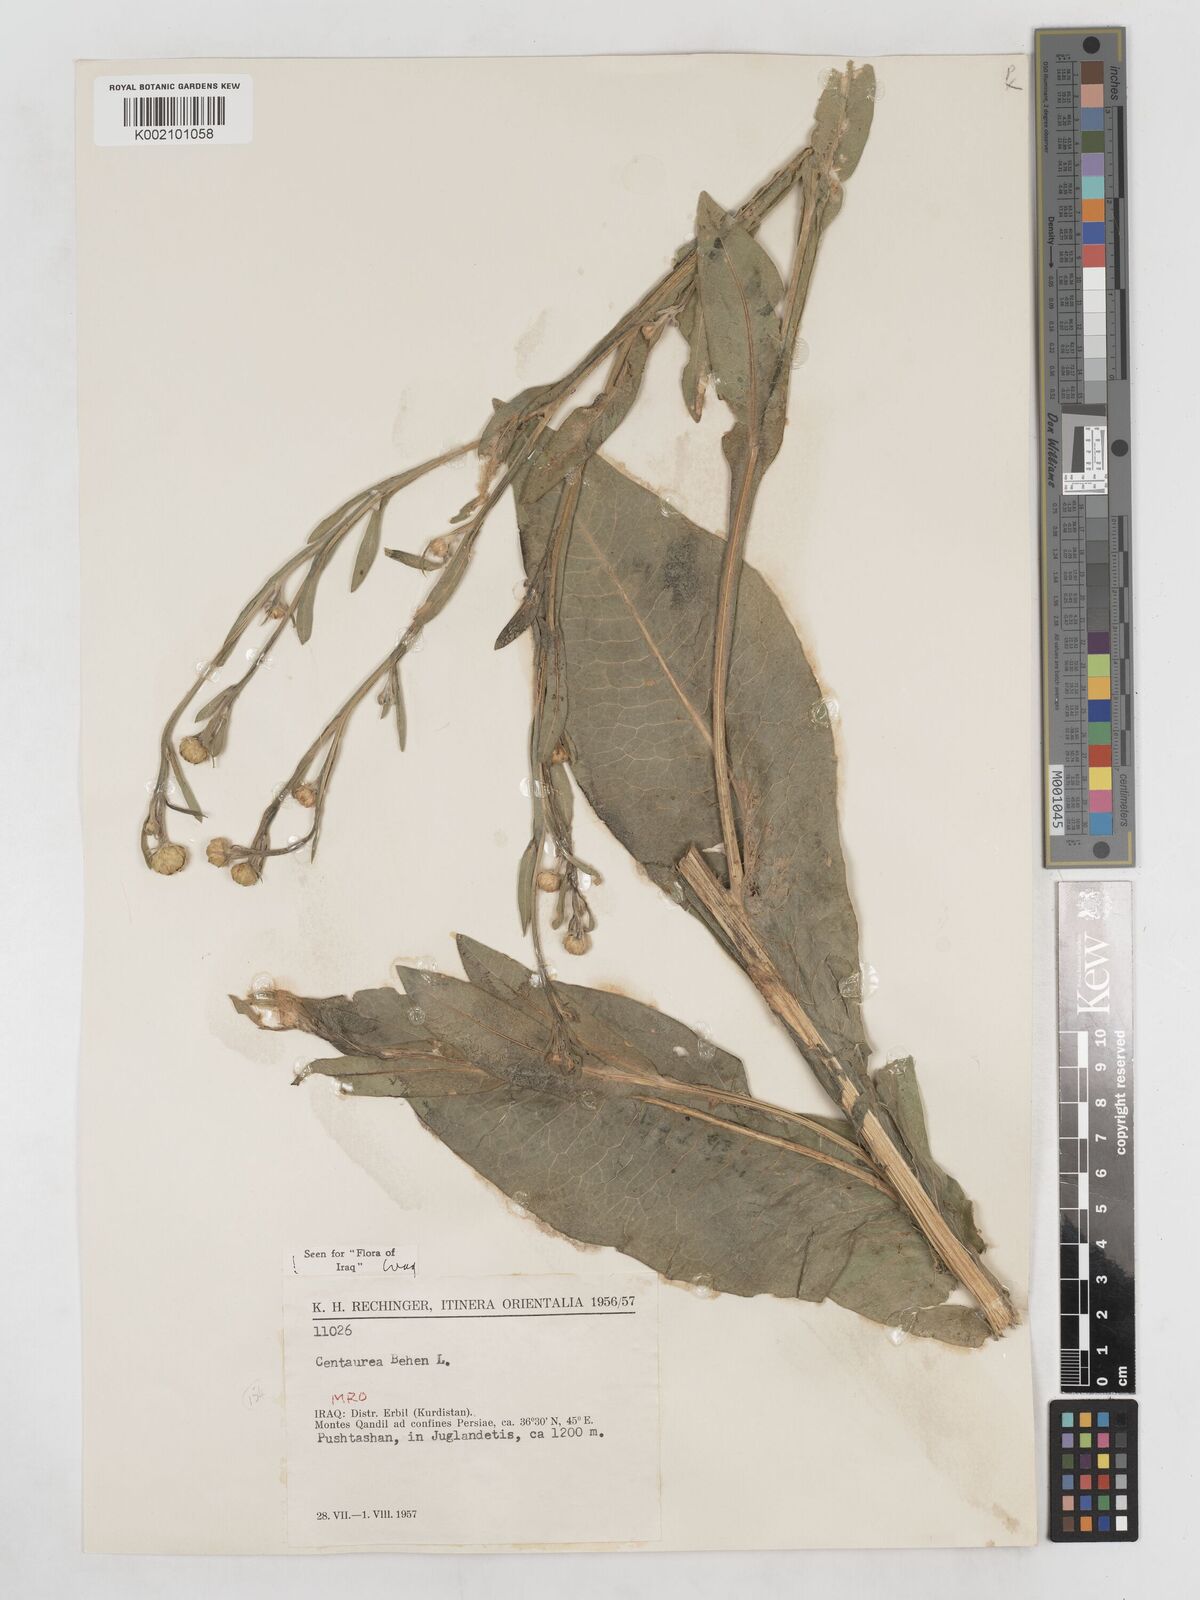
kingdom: Plantae
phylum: Tracheophyta
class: Magnoliopsida
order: Asterales
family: Asteraceae
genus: Centaurea
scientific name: Centaurea behen
